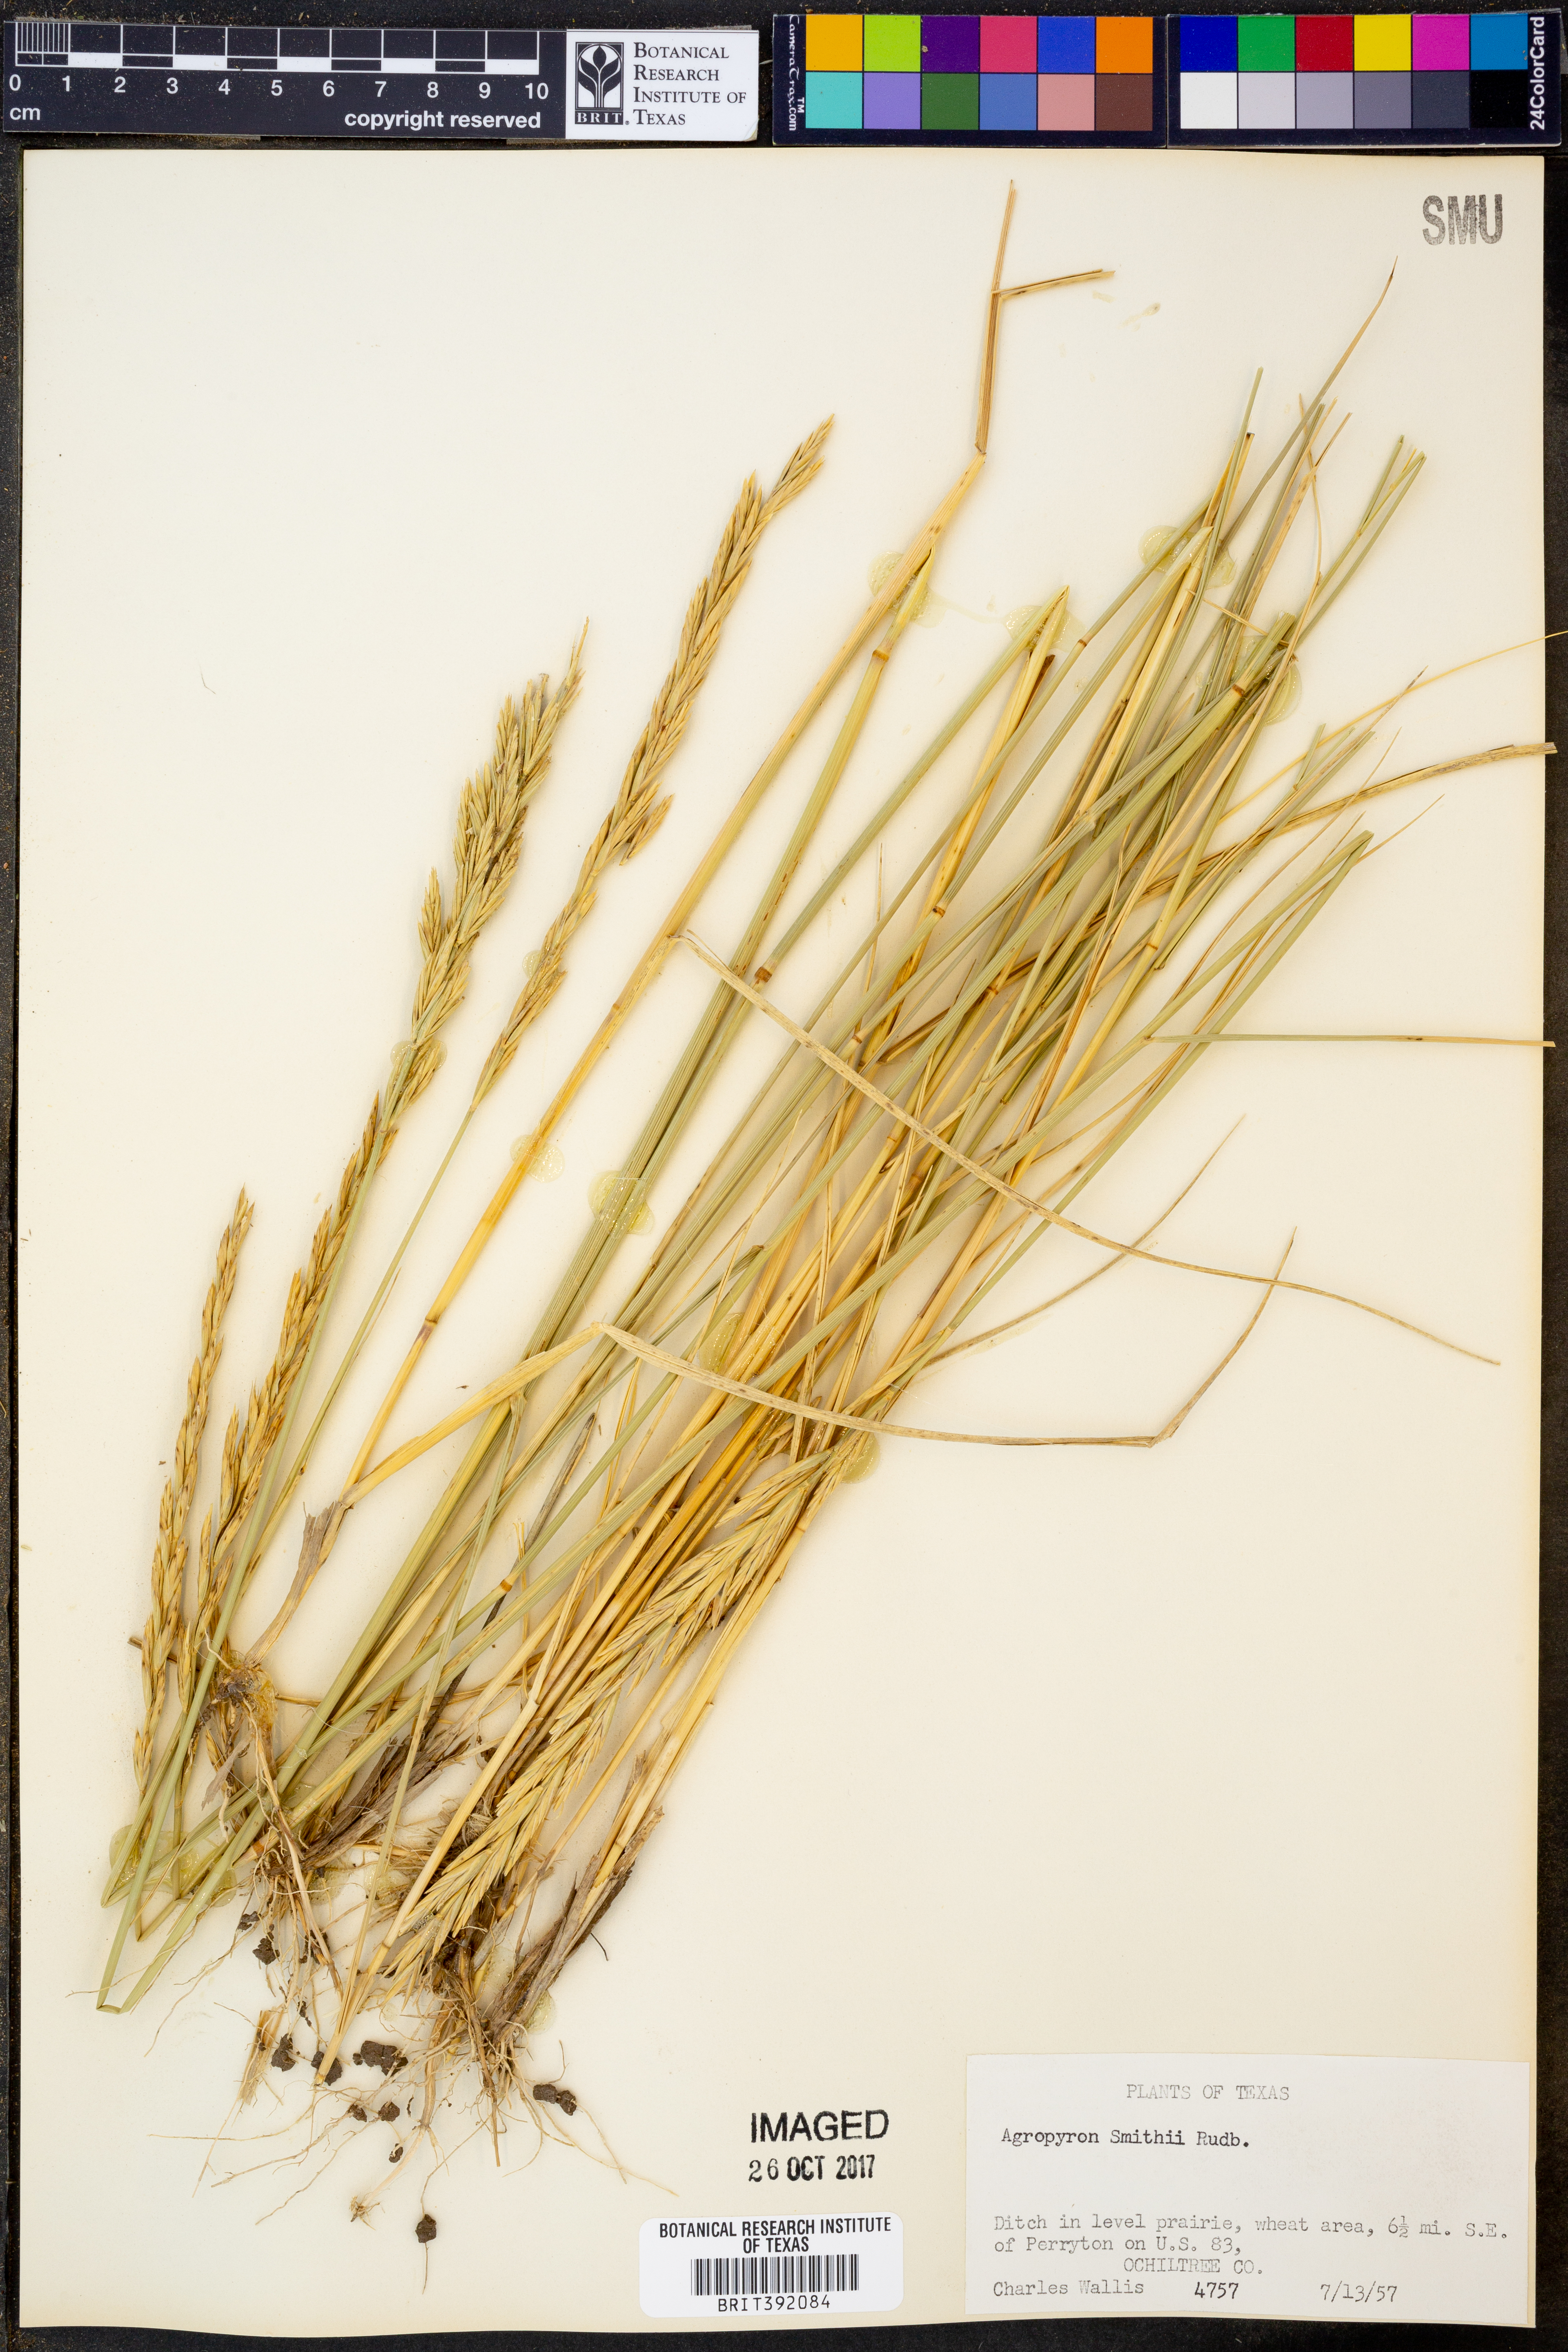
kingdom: Plantae
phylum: Tracheophyta
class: Liliopsida
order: Poales
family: Poaceae
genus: Elymus
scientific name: Elymus smithii
